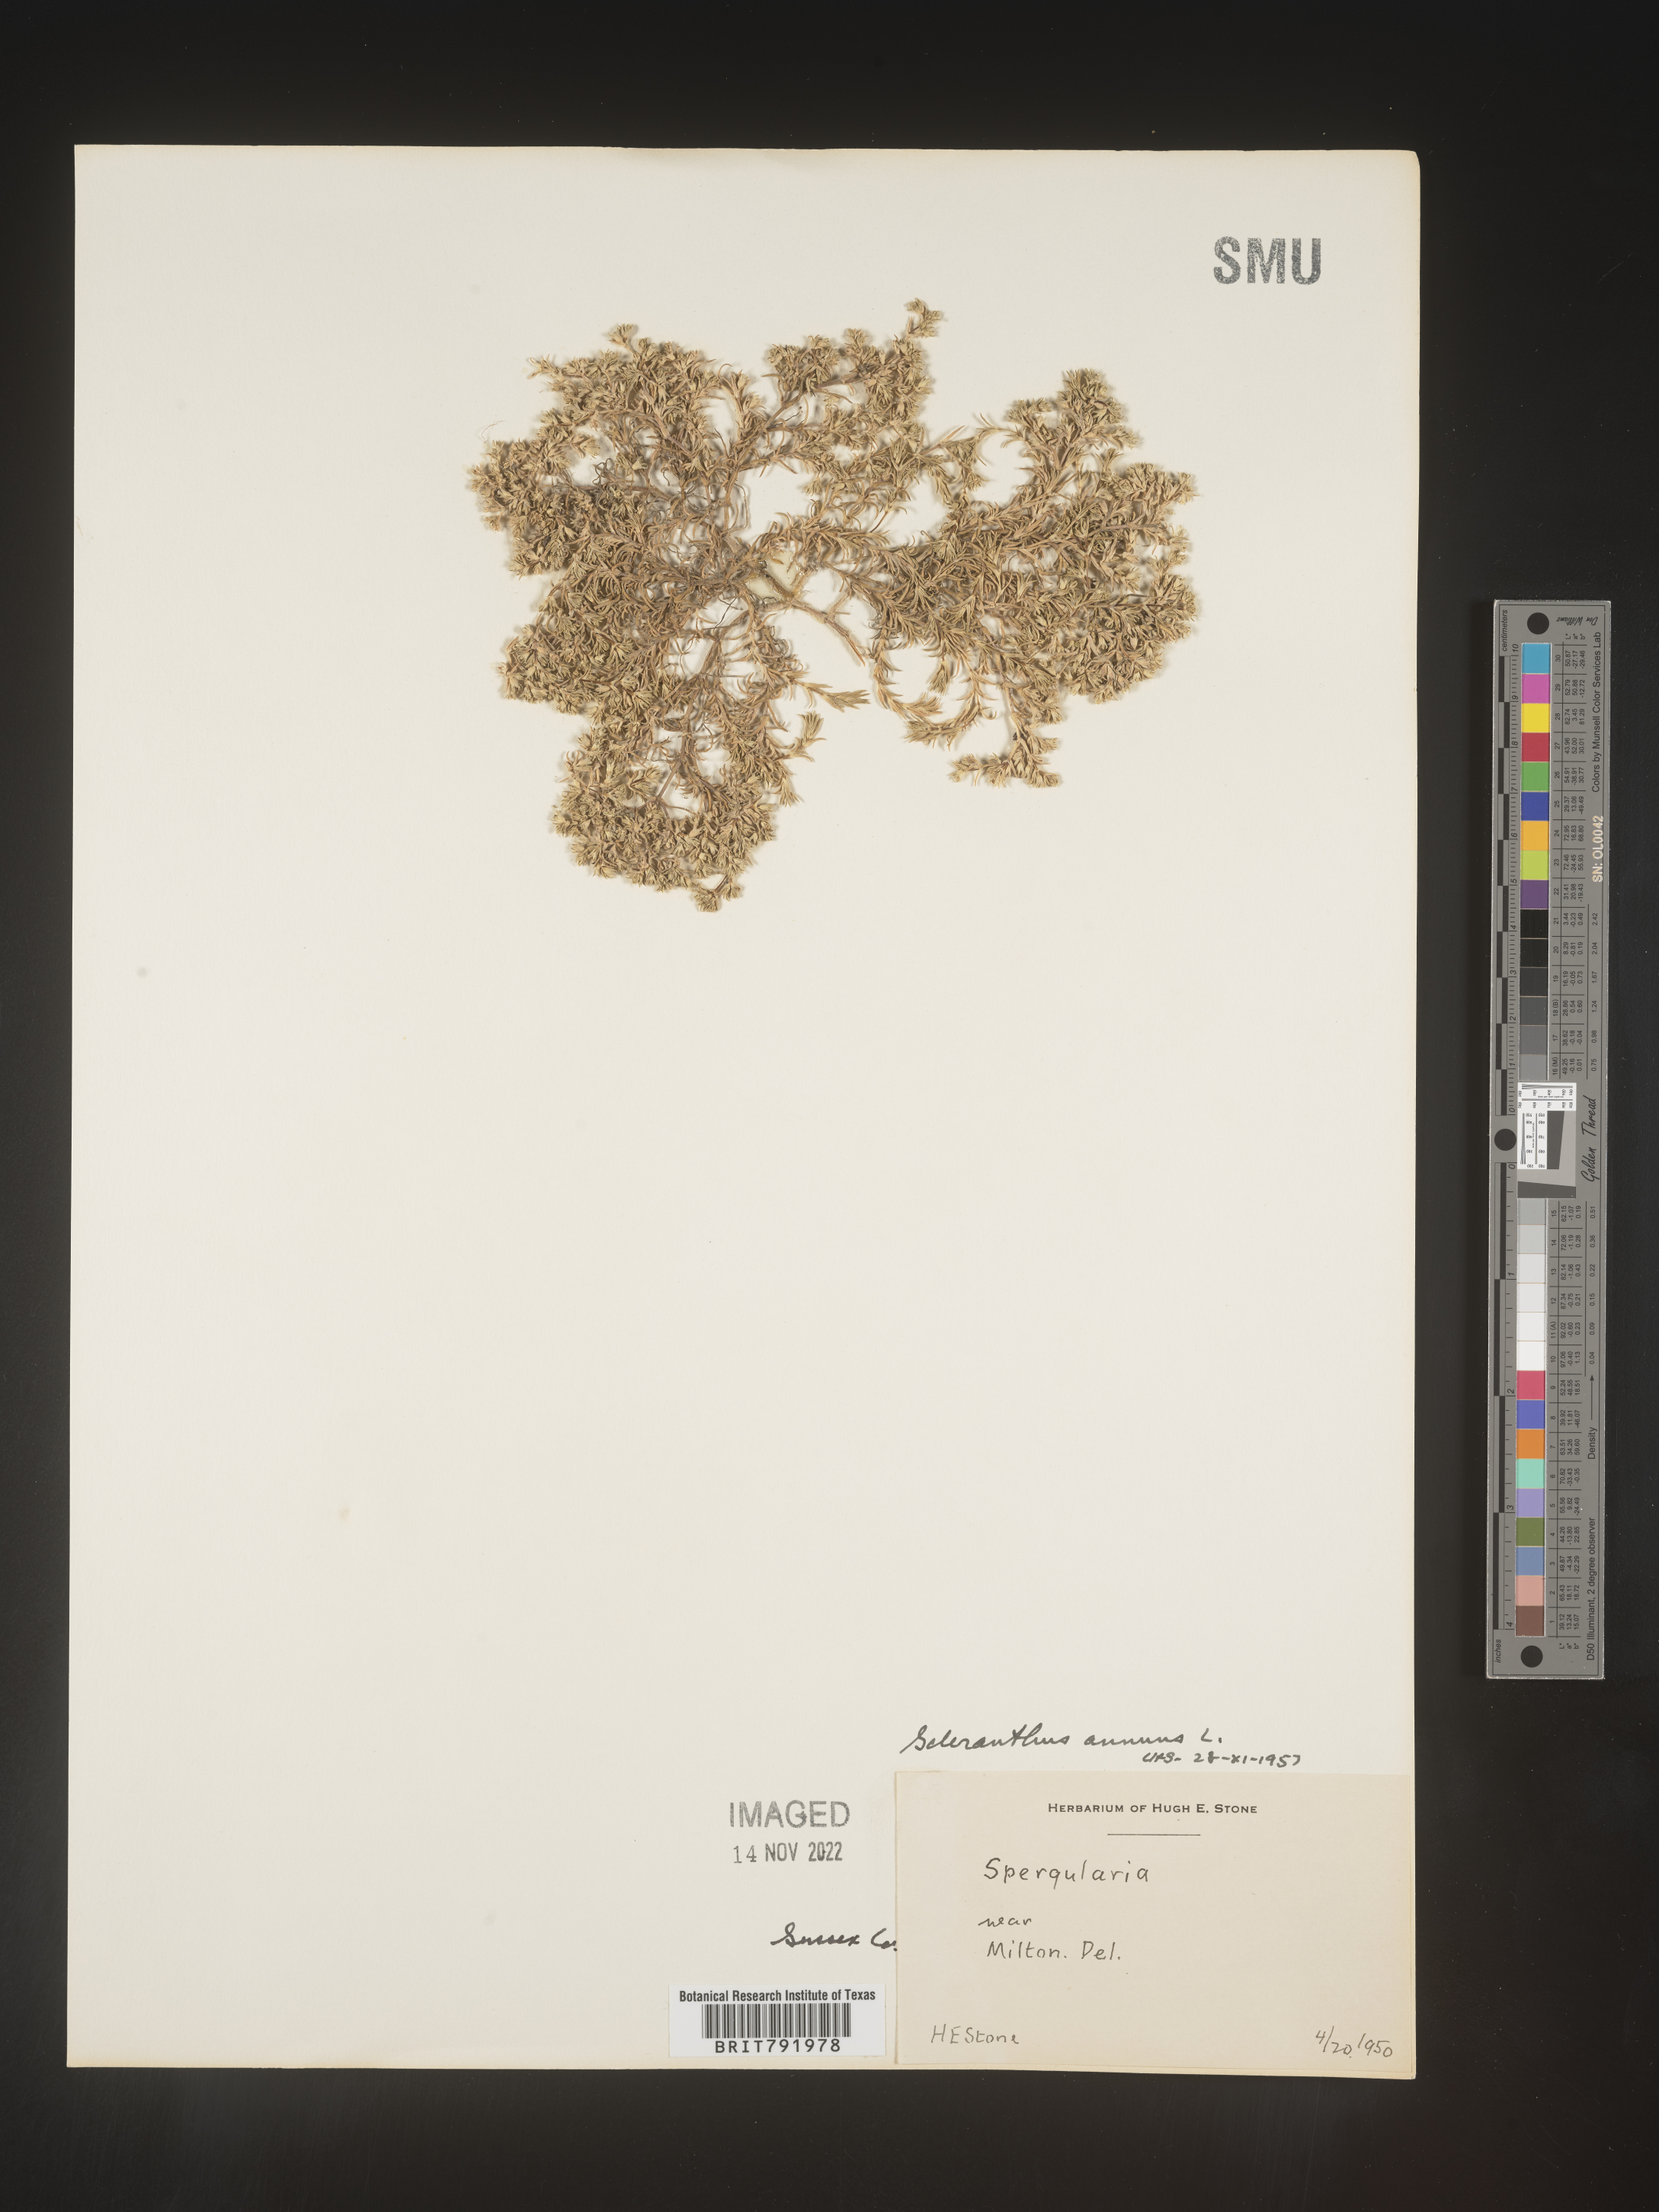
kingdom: Plantae
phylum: Tracheophyta
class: Magnoliopsida
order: Caryophyllales
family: Caryophyllaceae
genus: Scleranthus
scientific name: Scleranthus
